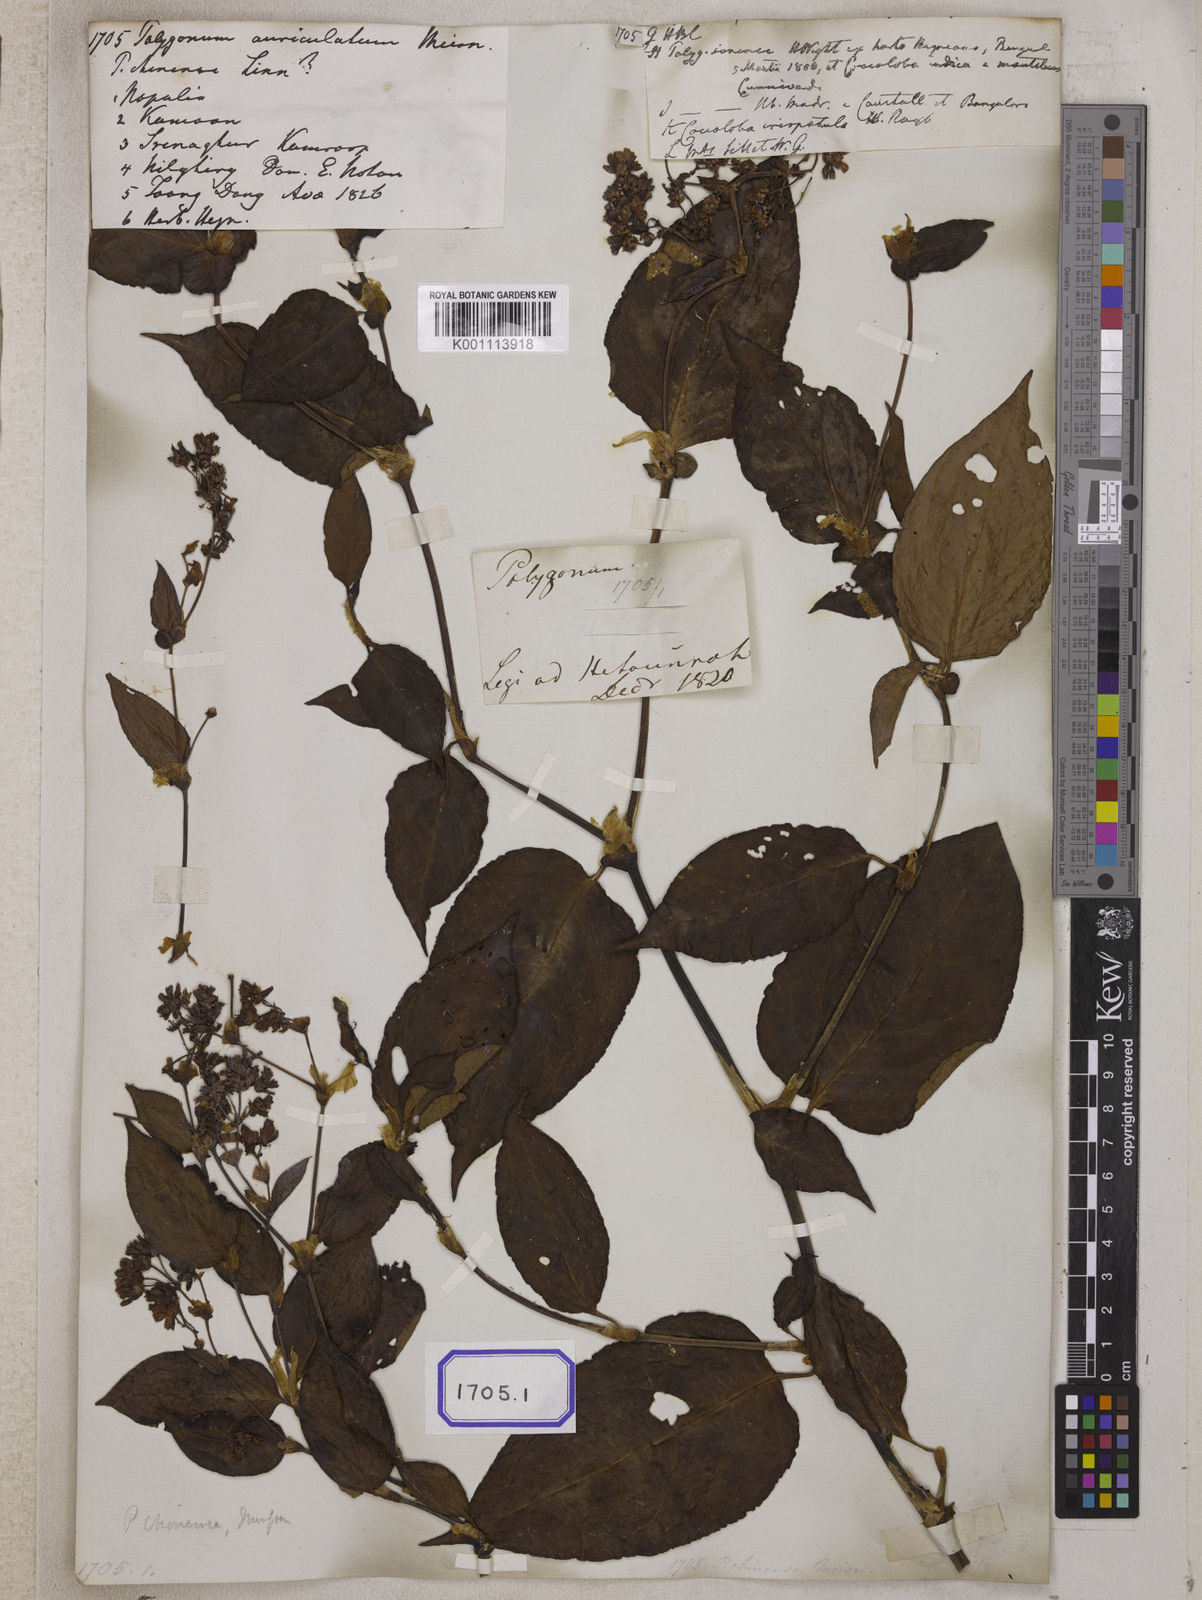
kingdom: Plantae
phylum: Tracheophyta
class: Magnoliopsida
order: Caryophyllales
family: Polygonaceae
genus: Persicaria
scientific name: Persicaria chinensis
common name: Chinese knotweed
